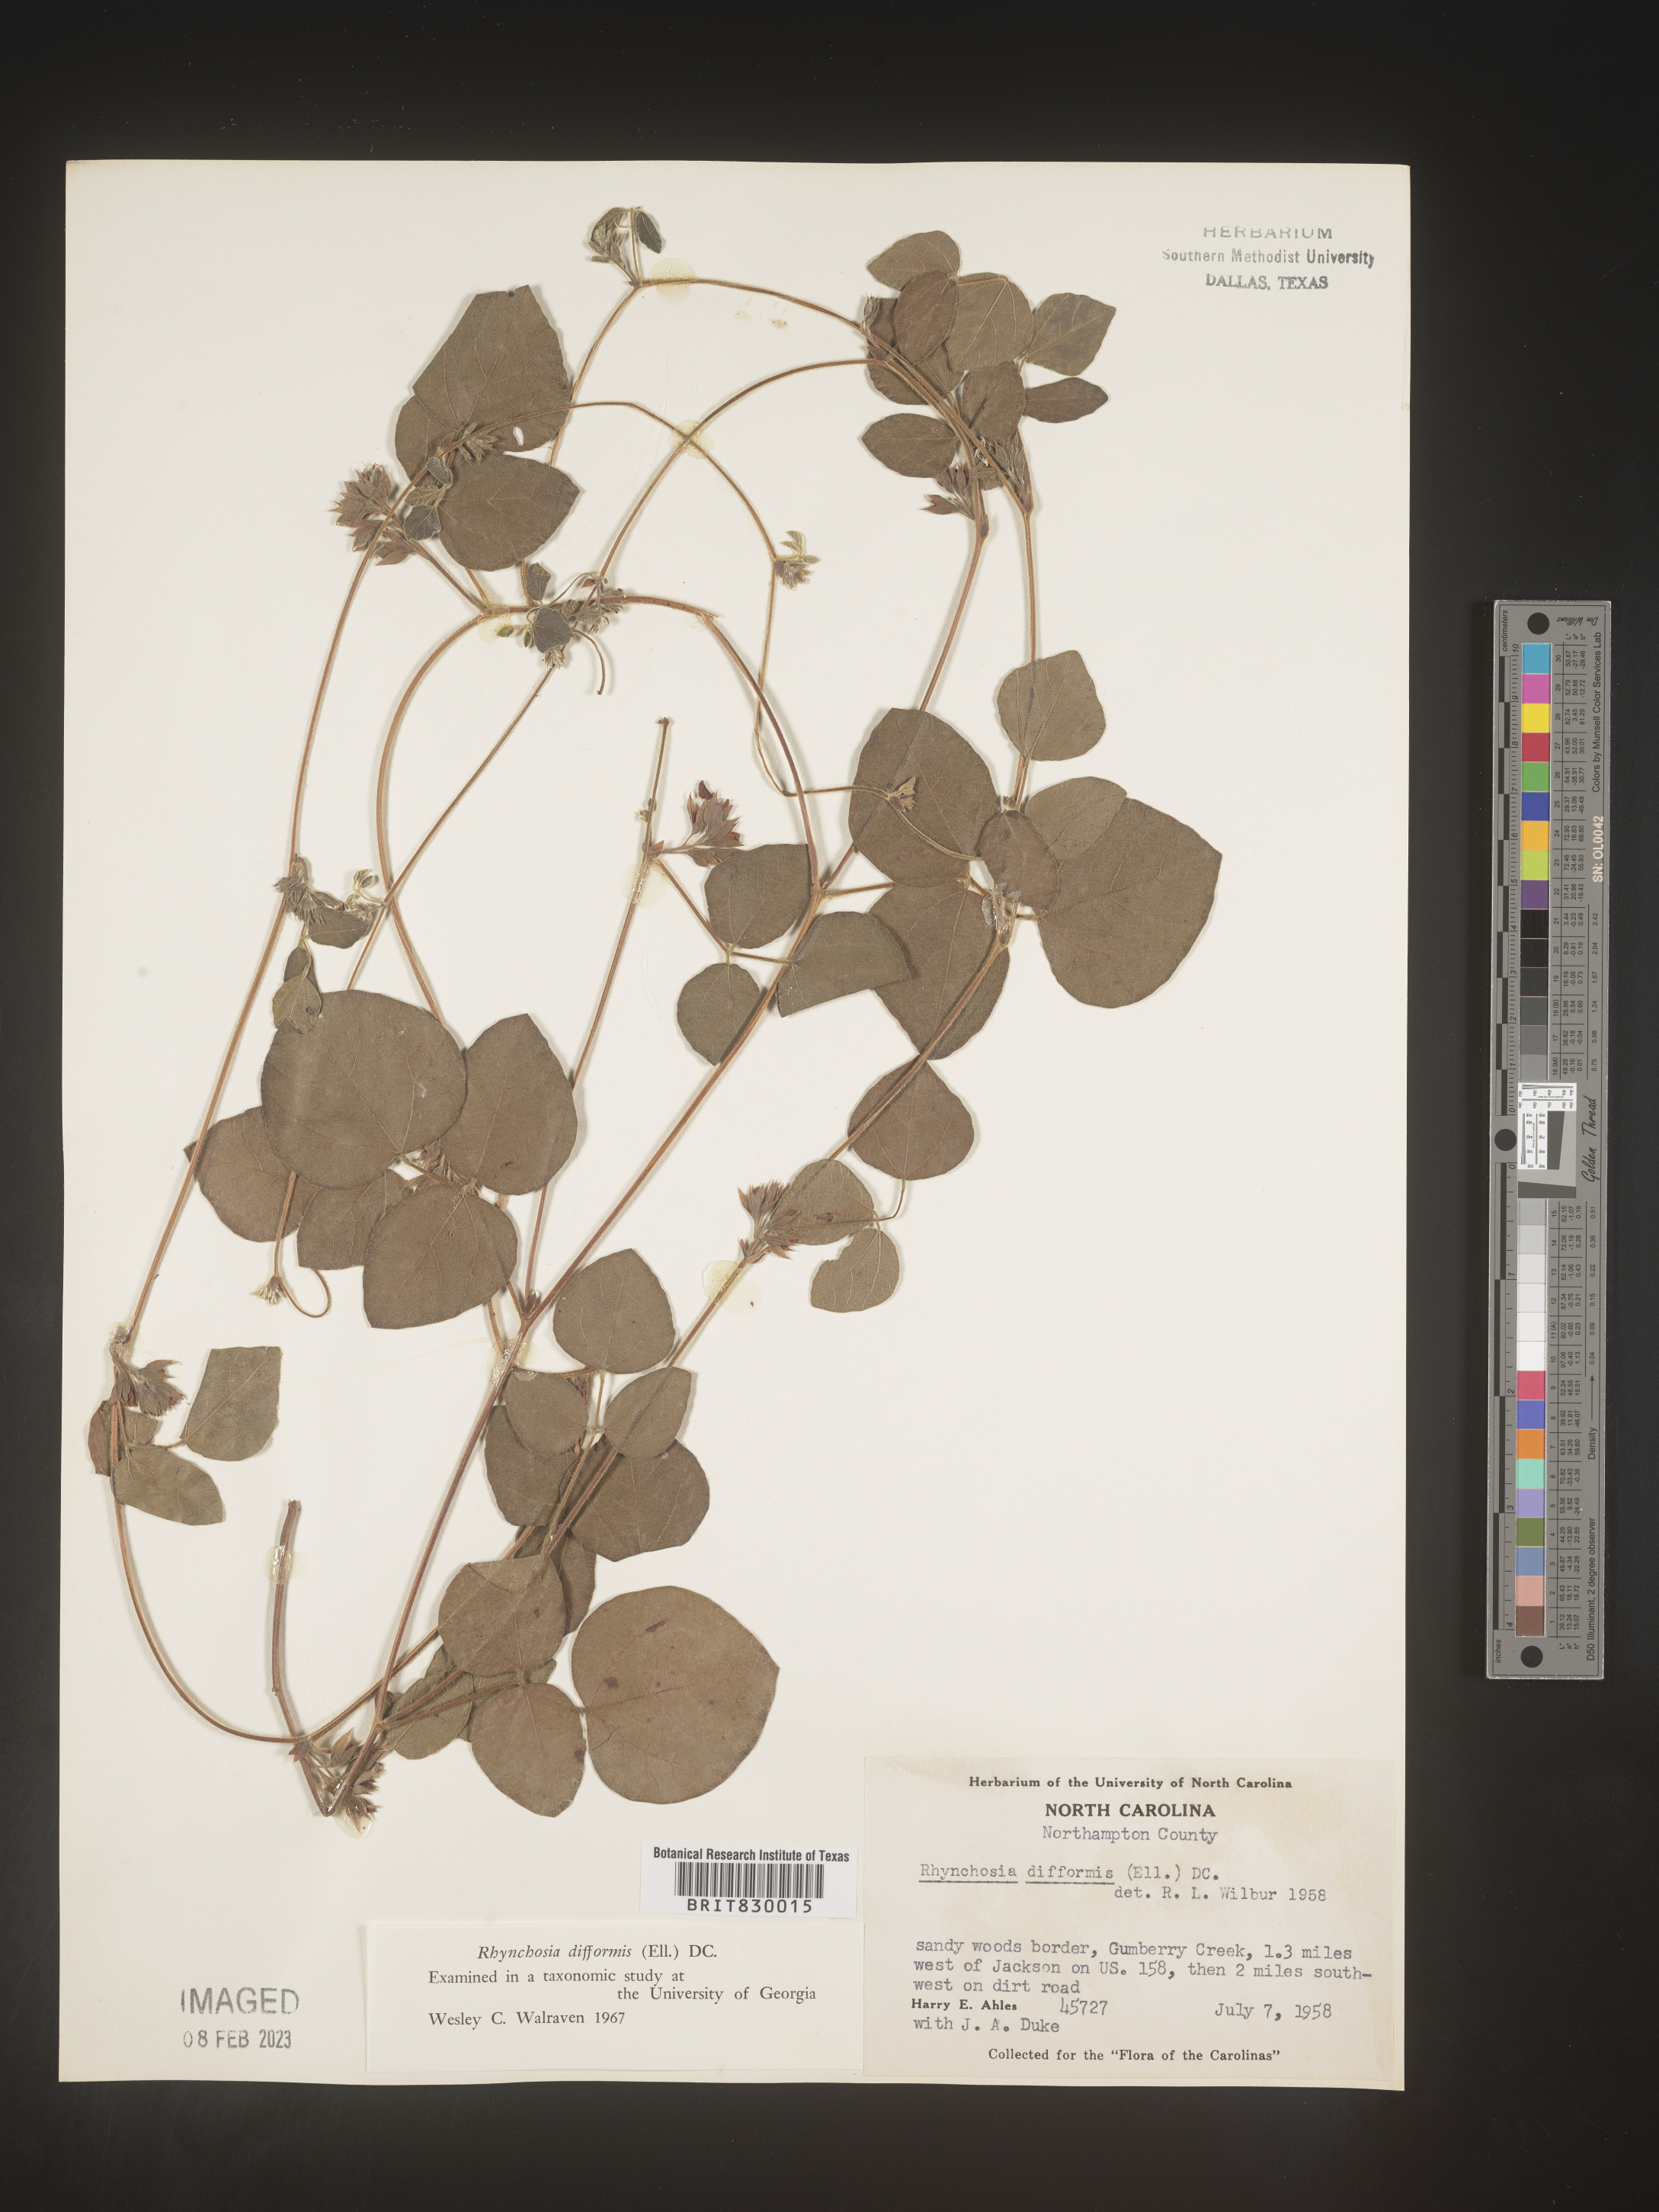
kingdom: Plantae
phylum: Tracheophyta
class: Magnoliopsida
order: Fabales
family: Fabaceae
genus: Rhynchosia
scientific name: Rhynchosia difformis
